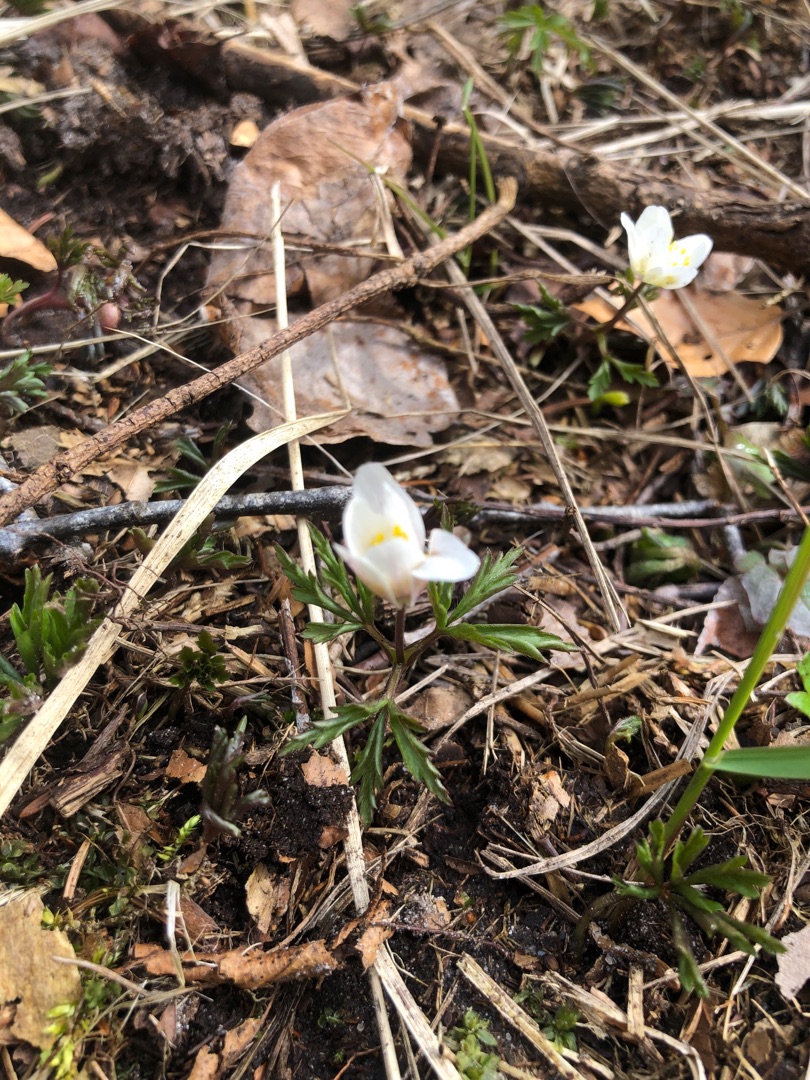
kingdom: Plantae
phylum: Tracheophyta
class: Magnoliopsida
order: Ranunculales
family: Ranunculaceae
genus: Anemone
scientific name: Anemone nemorosa
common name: Hvid anemone
